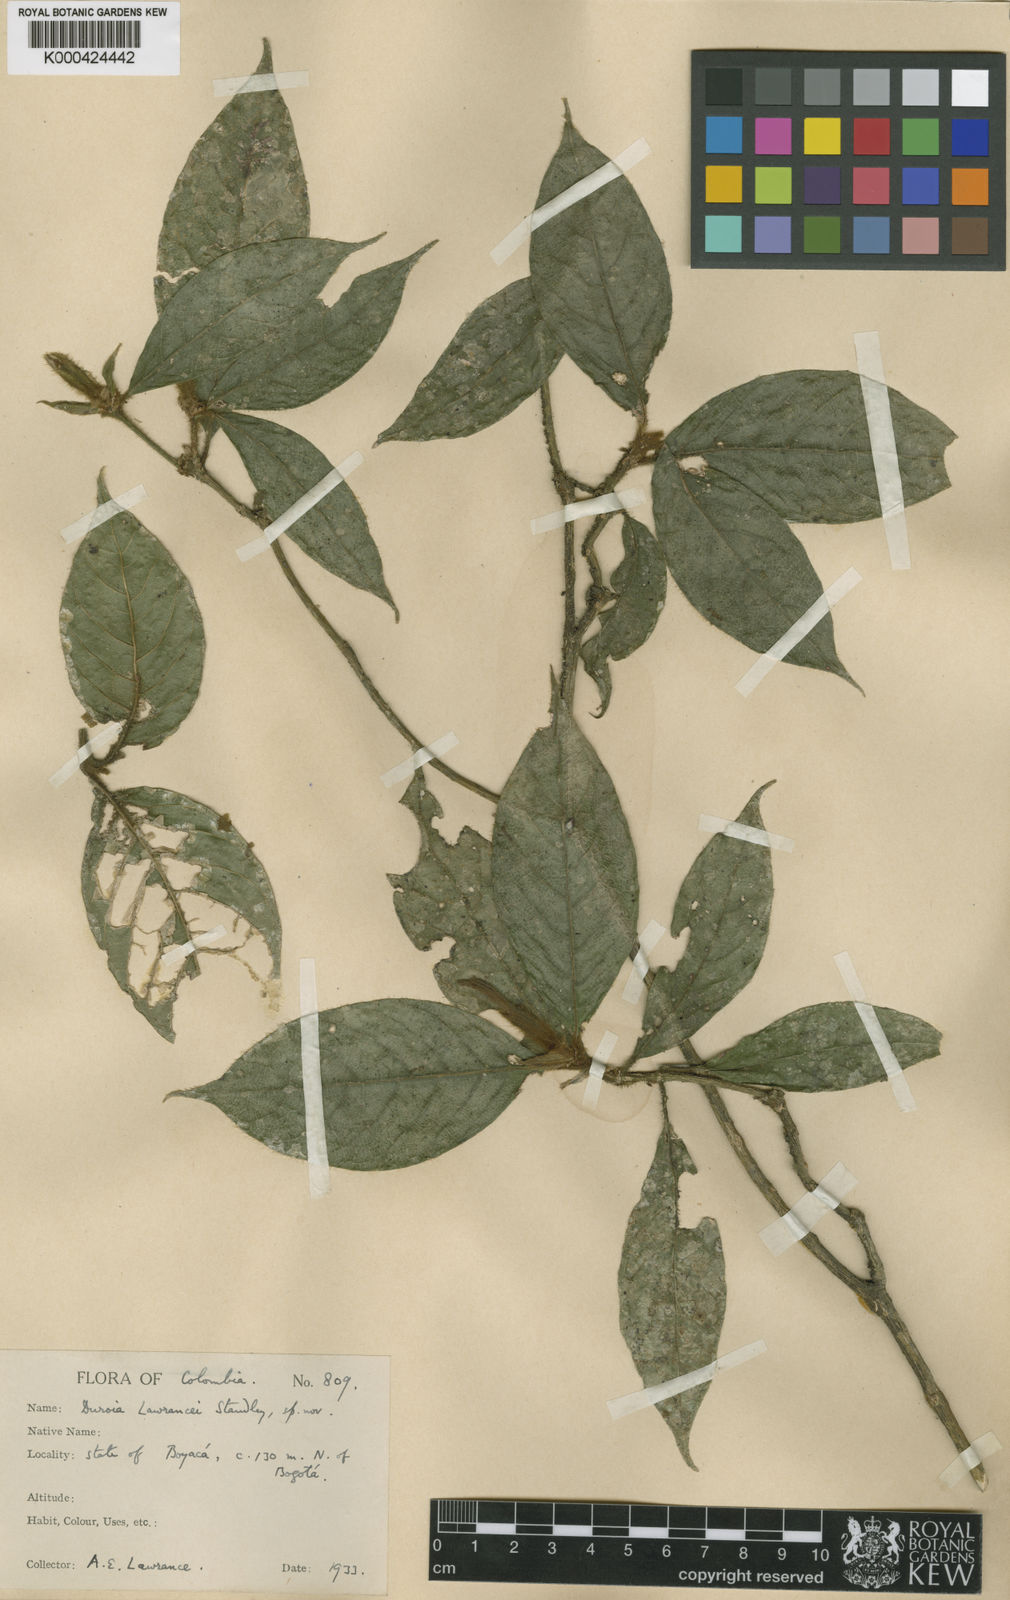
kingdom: Plantae
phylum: Tracheophyta
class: Magnoliopsida
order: Gentianales
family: Rubiaceae
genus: Duroia
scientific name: Duroia
